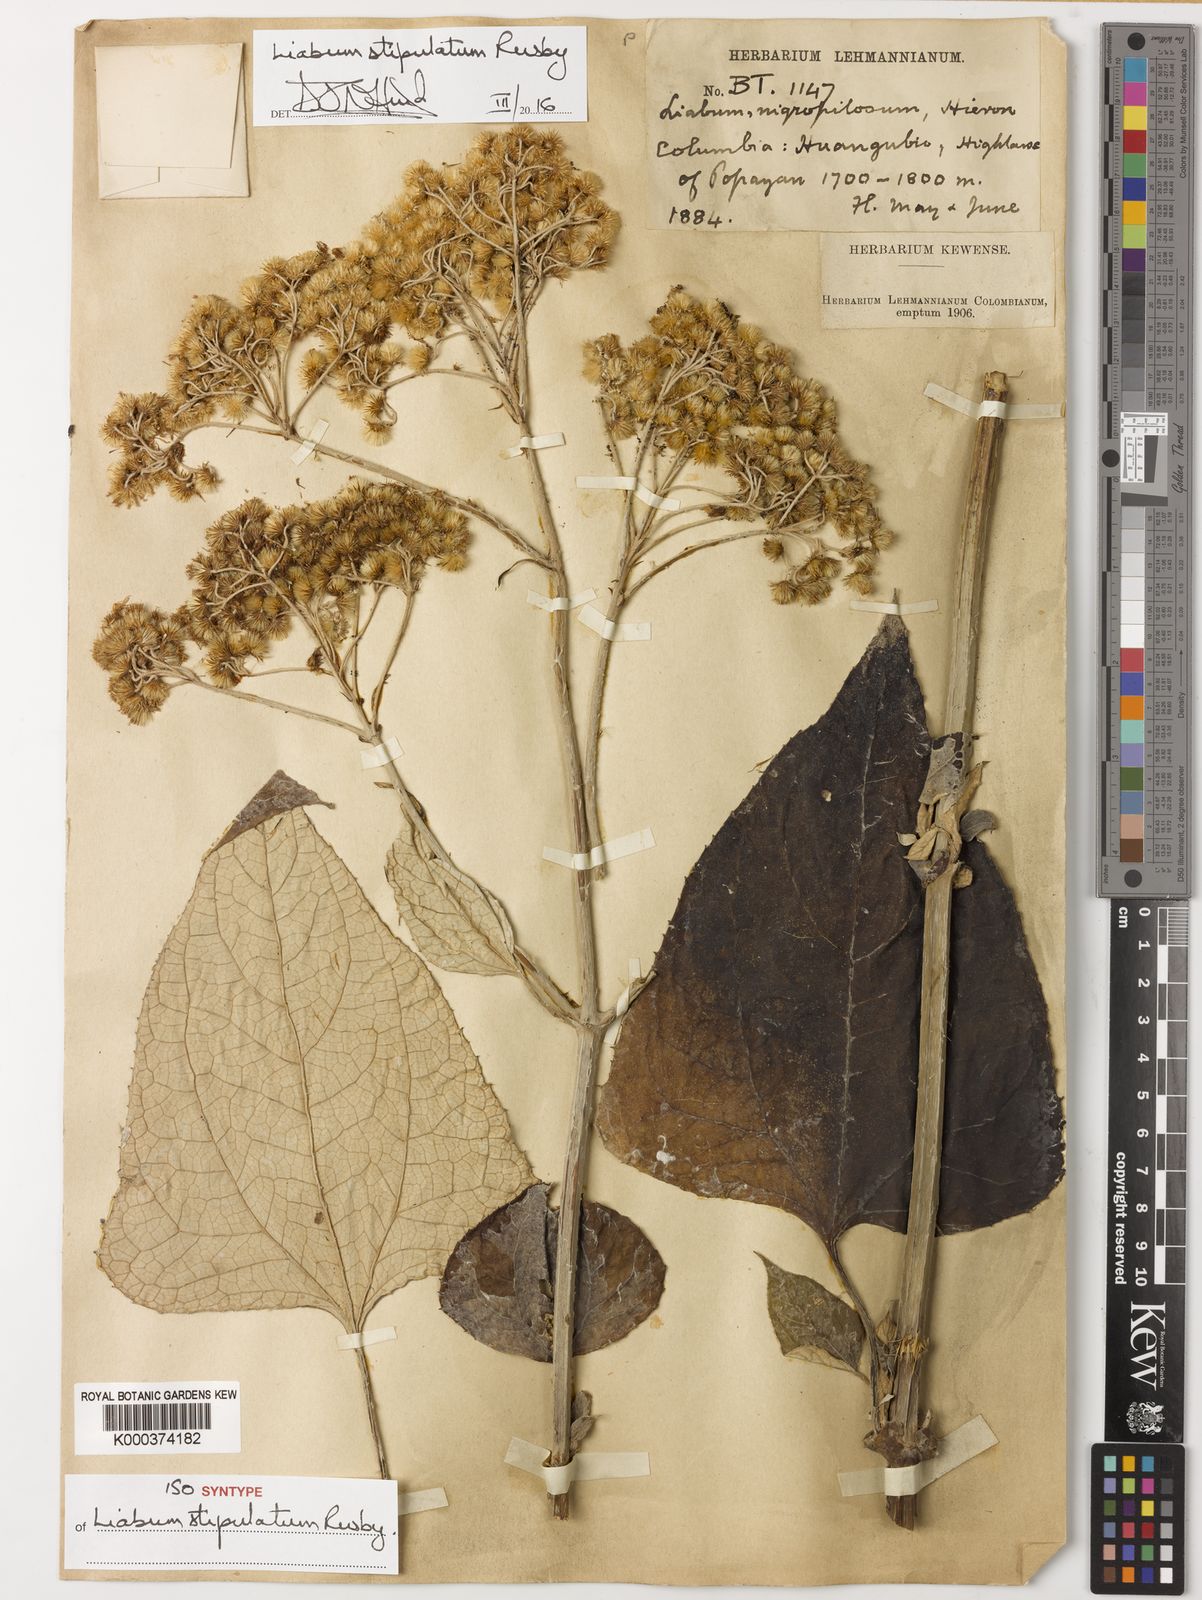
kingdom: Plantae
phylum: Tracheophyta
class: Magnoliopsida
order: Asterales
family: Asteraceae
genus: Liabum
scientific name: Liabum stipulatum
